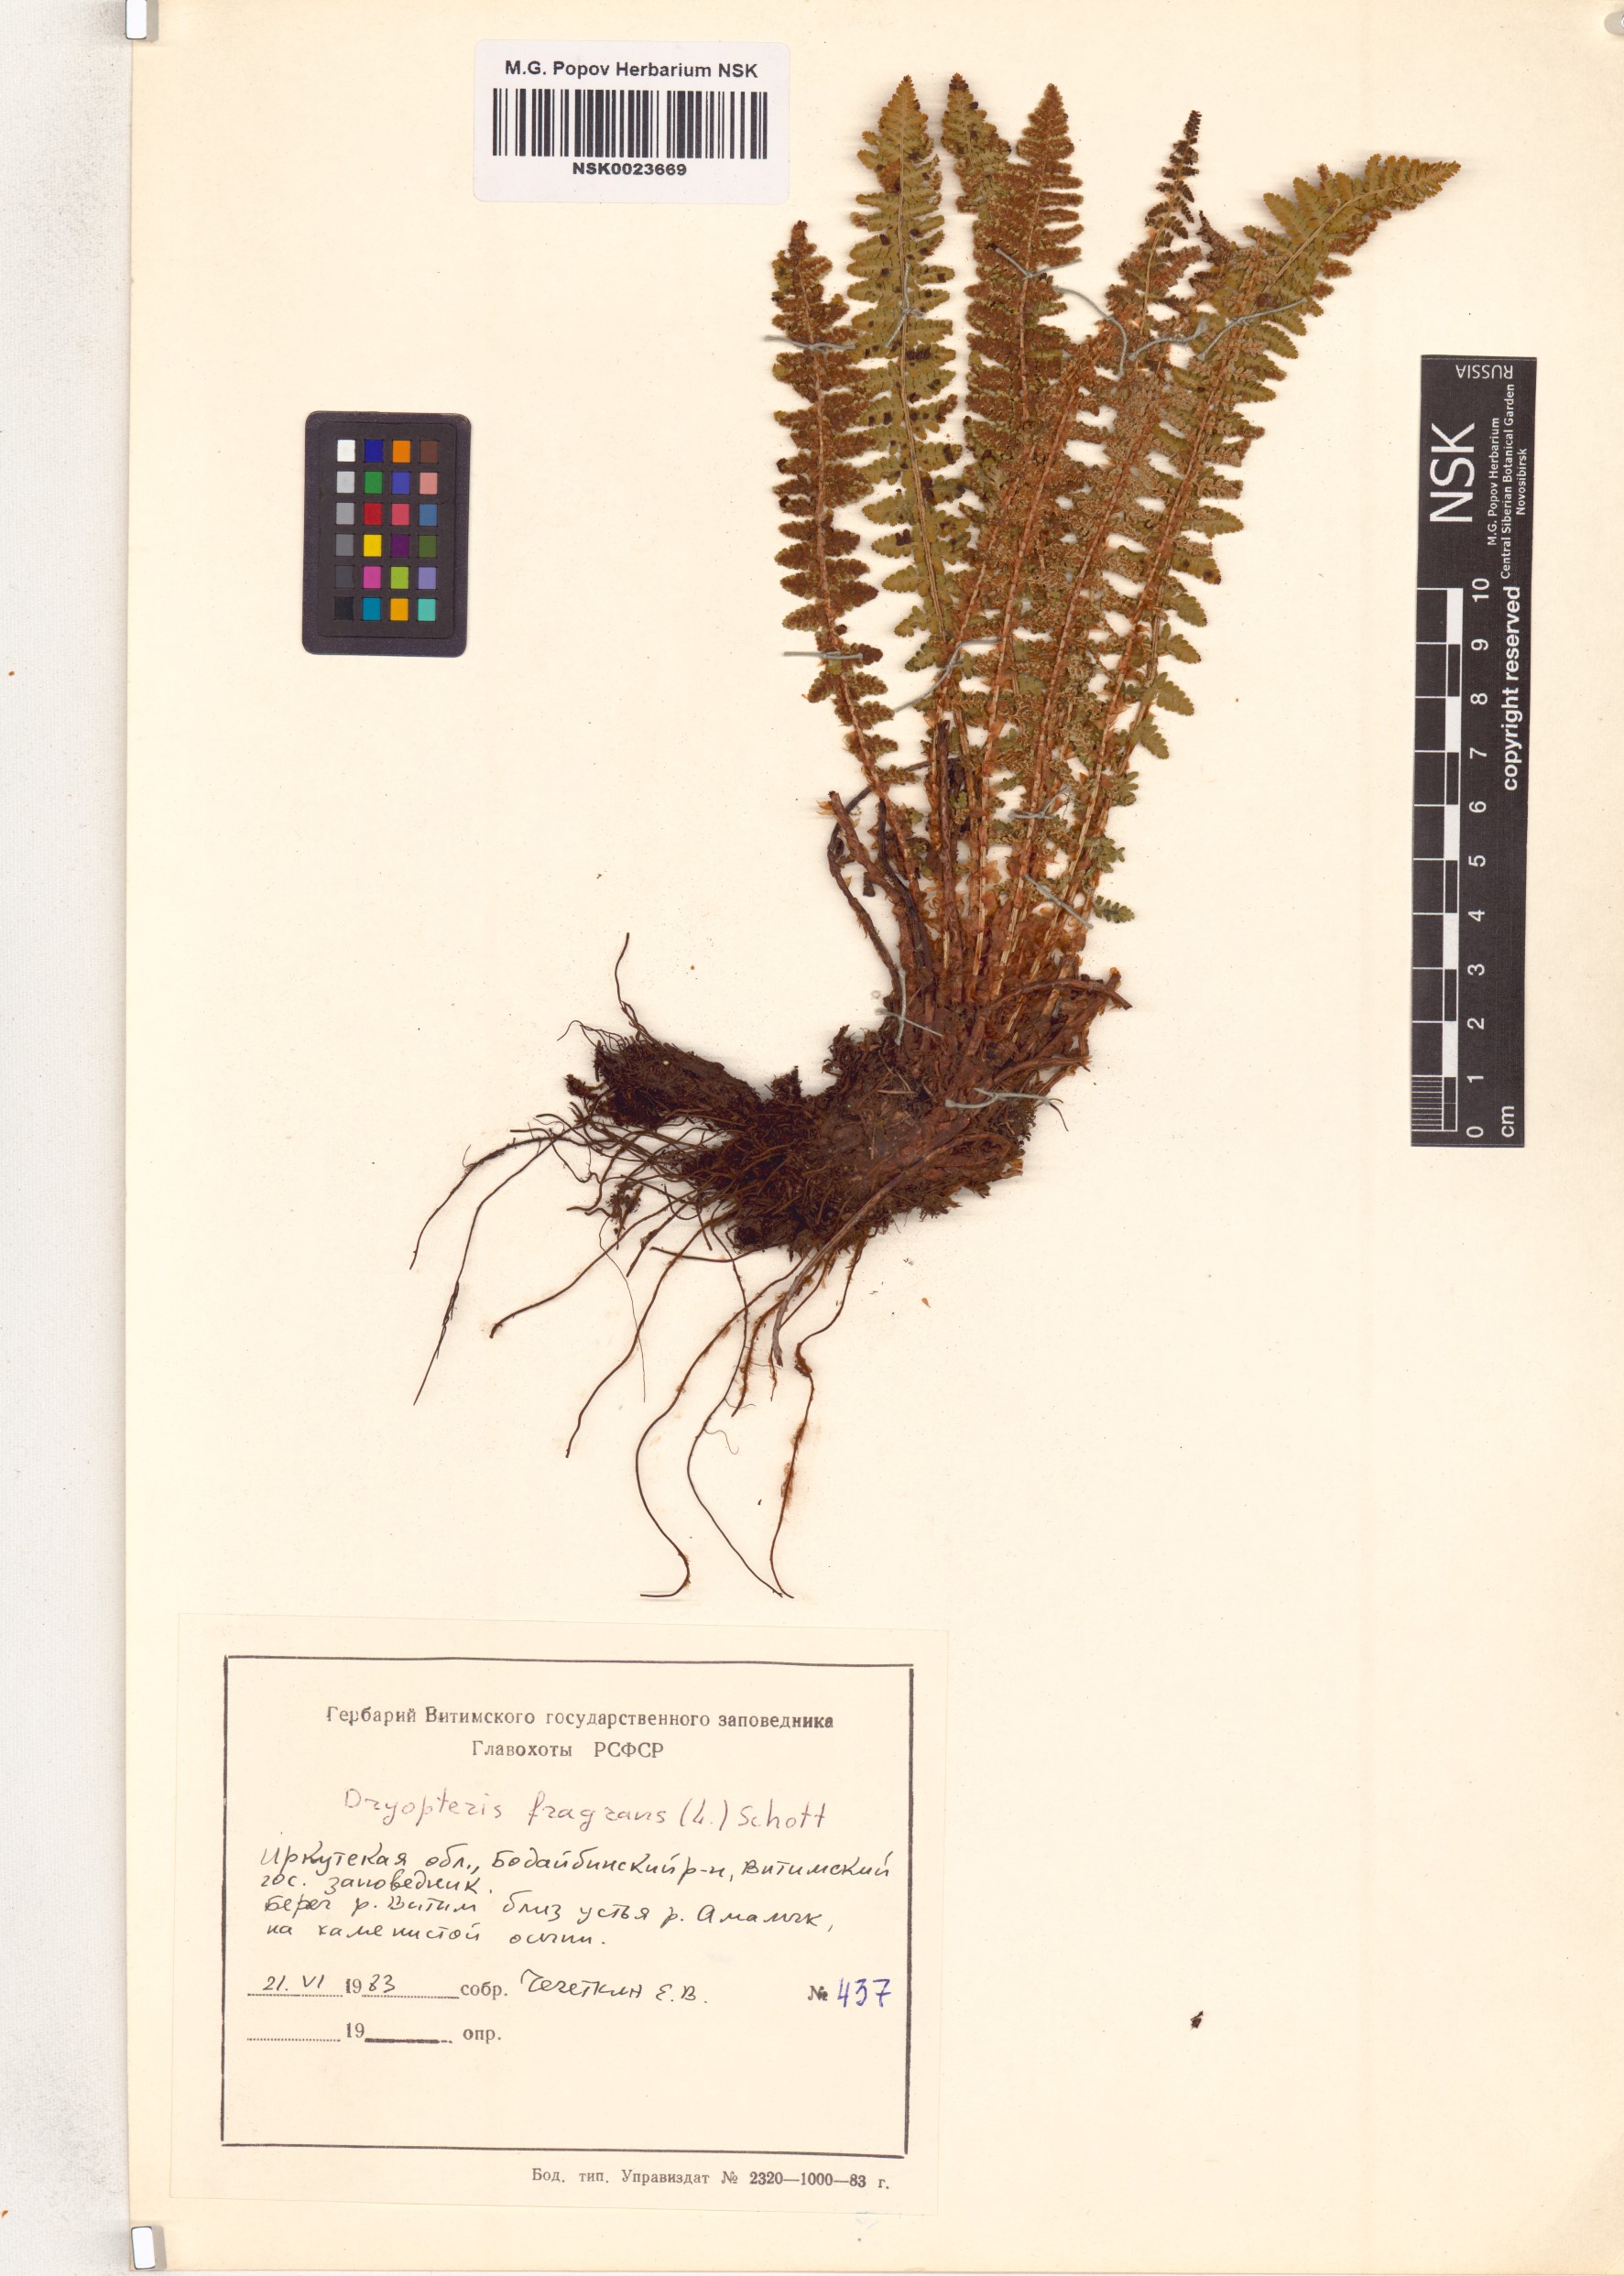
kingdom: Plantae
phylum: Tracheophyta
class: Polypodiopsida
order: Polypodiales
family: Dryopteridaceae
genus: Dryopteris
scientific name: Dryopteris fragrans
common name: Fragrant wood fern
